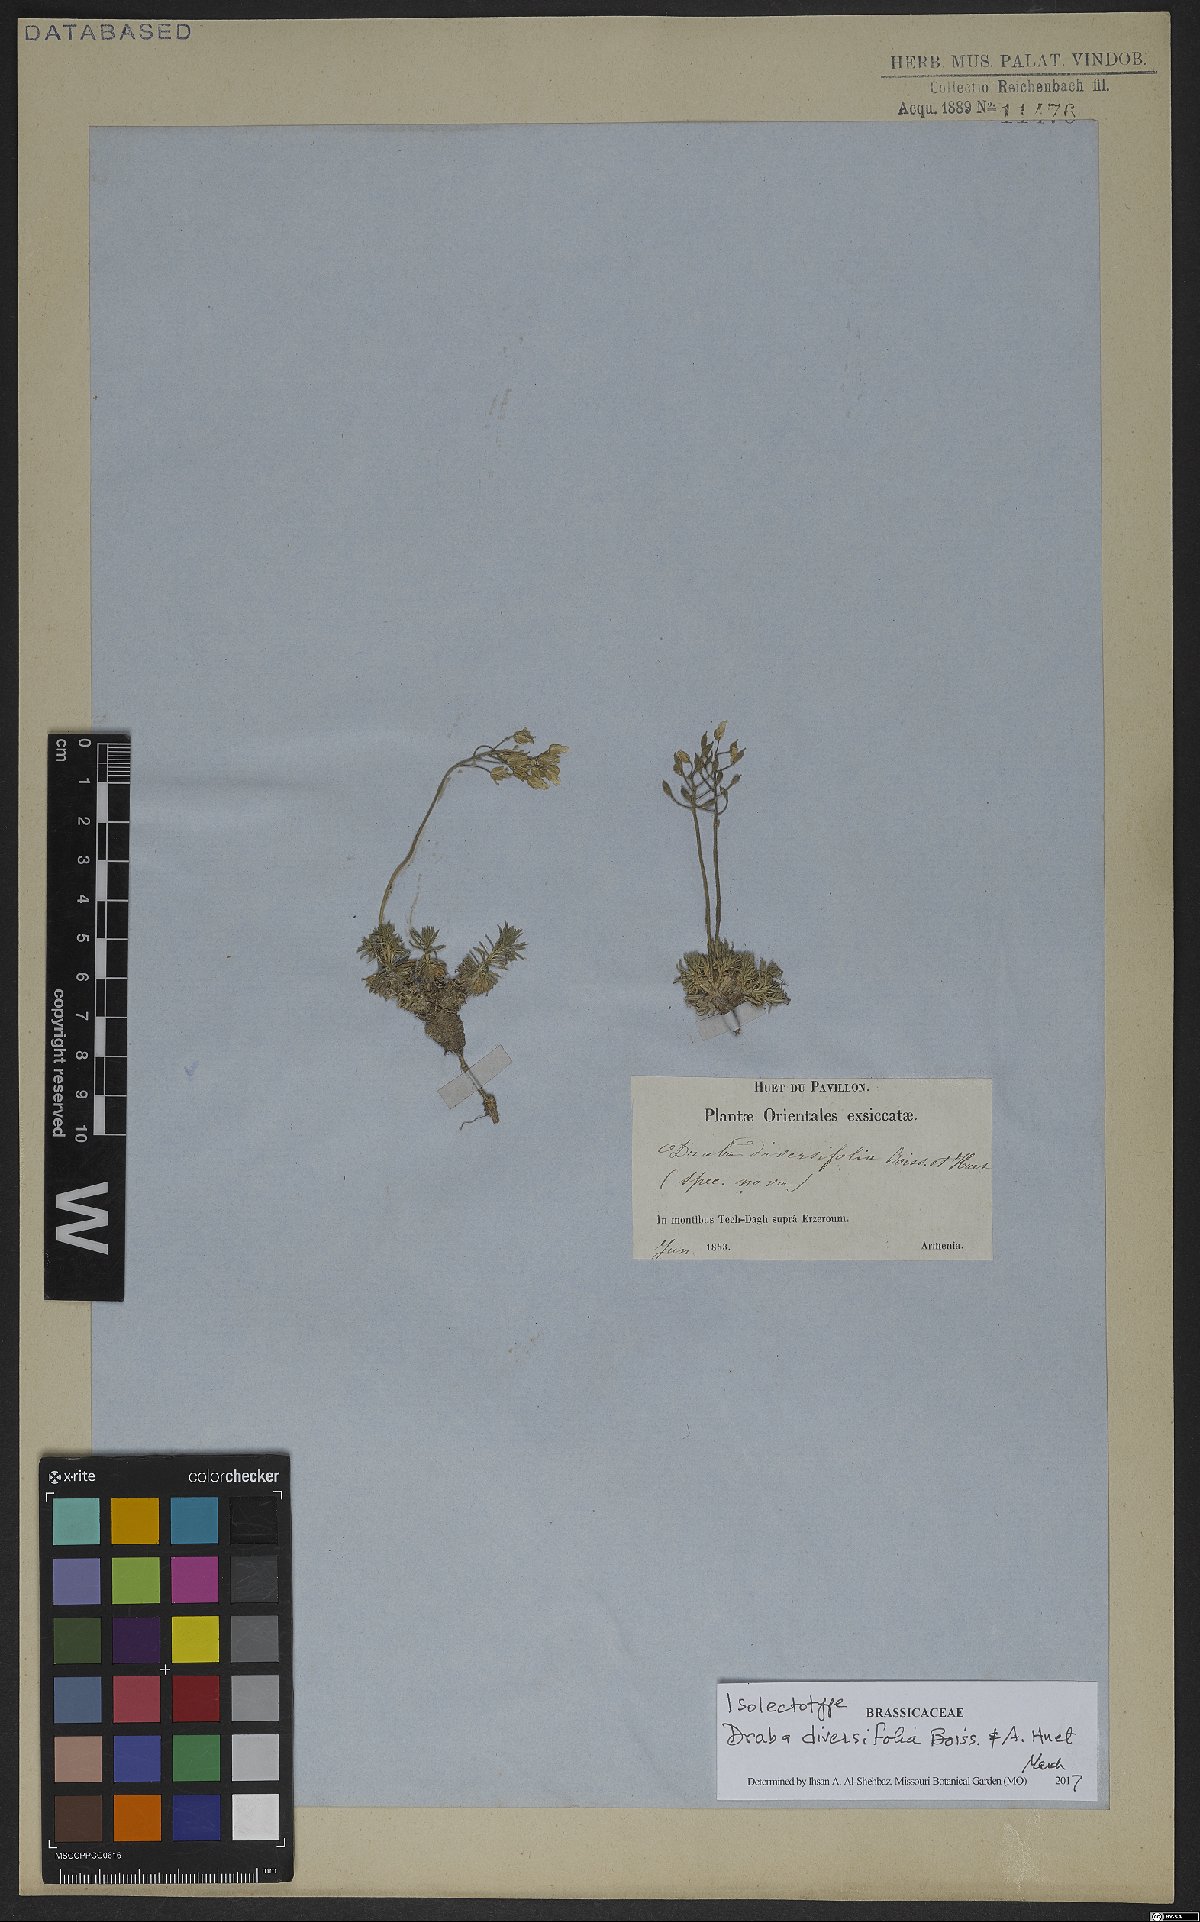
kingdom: Plantae
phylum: Tracheophyta
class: Magnoliopsida
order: Brassicales
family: Brassicaceae
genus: Draba
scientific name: Draba bruniifolia
